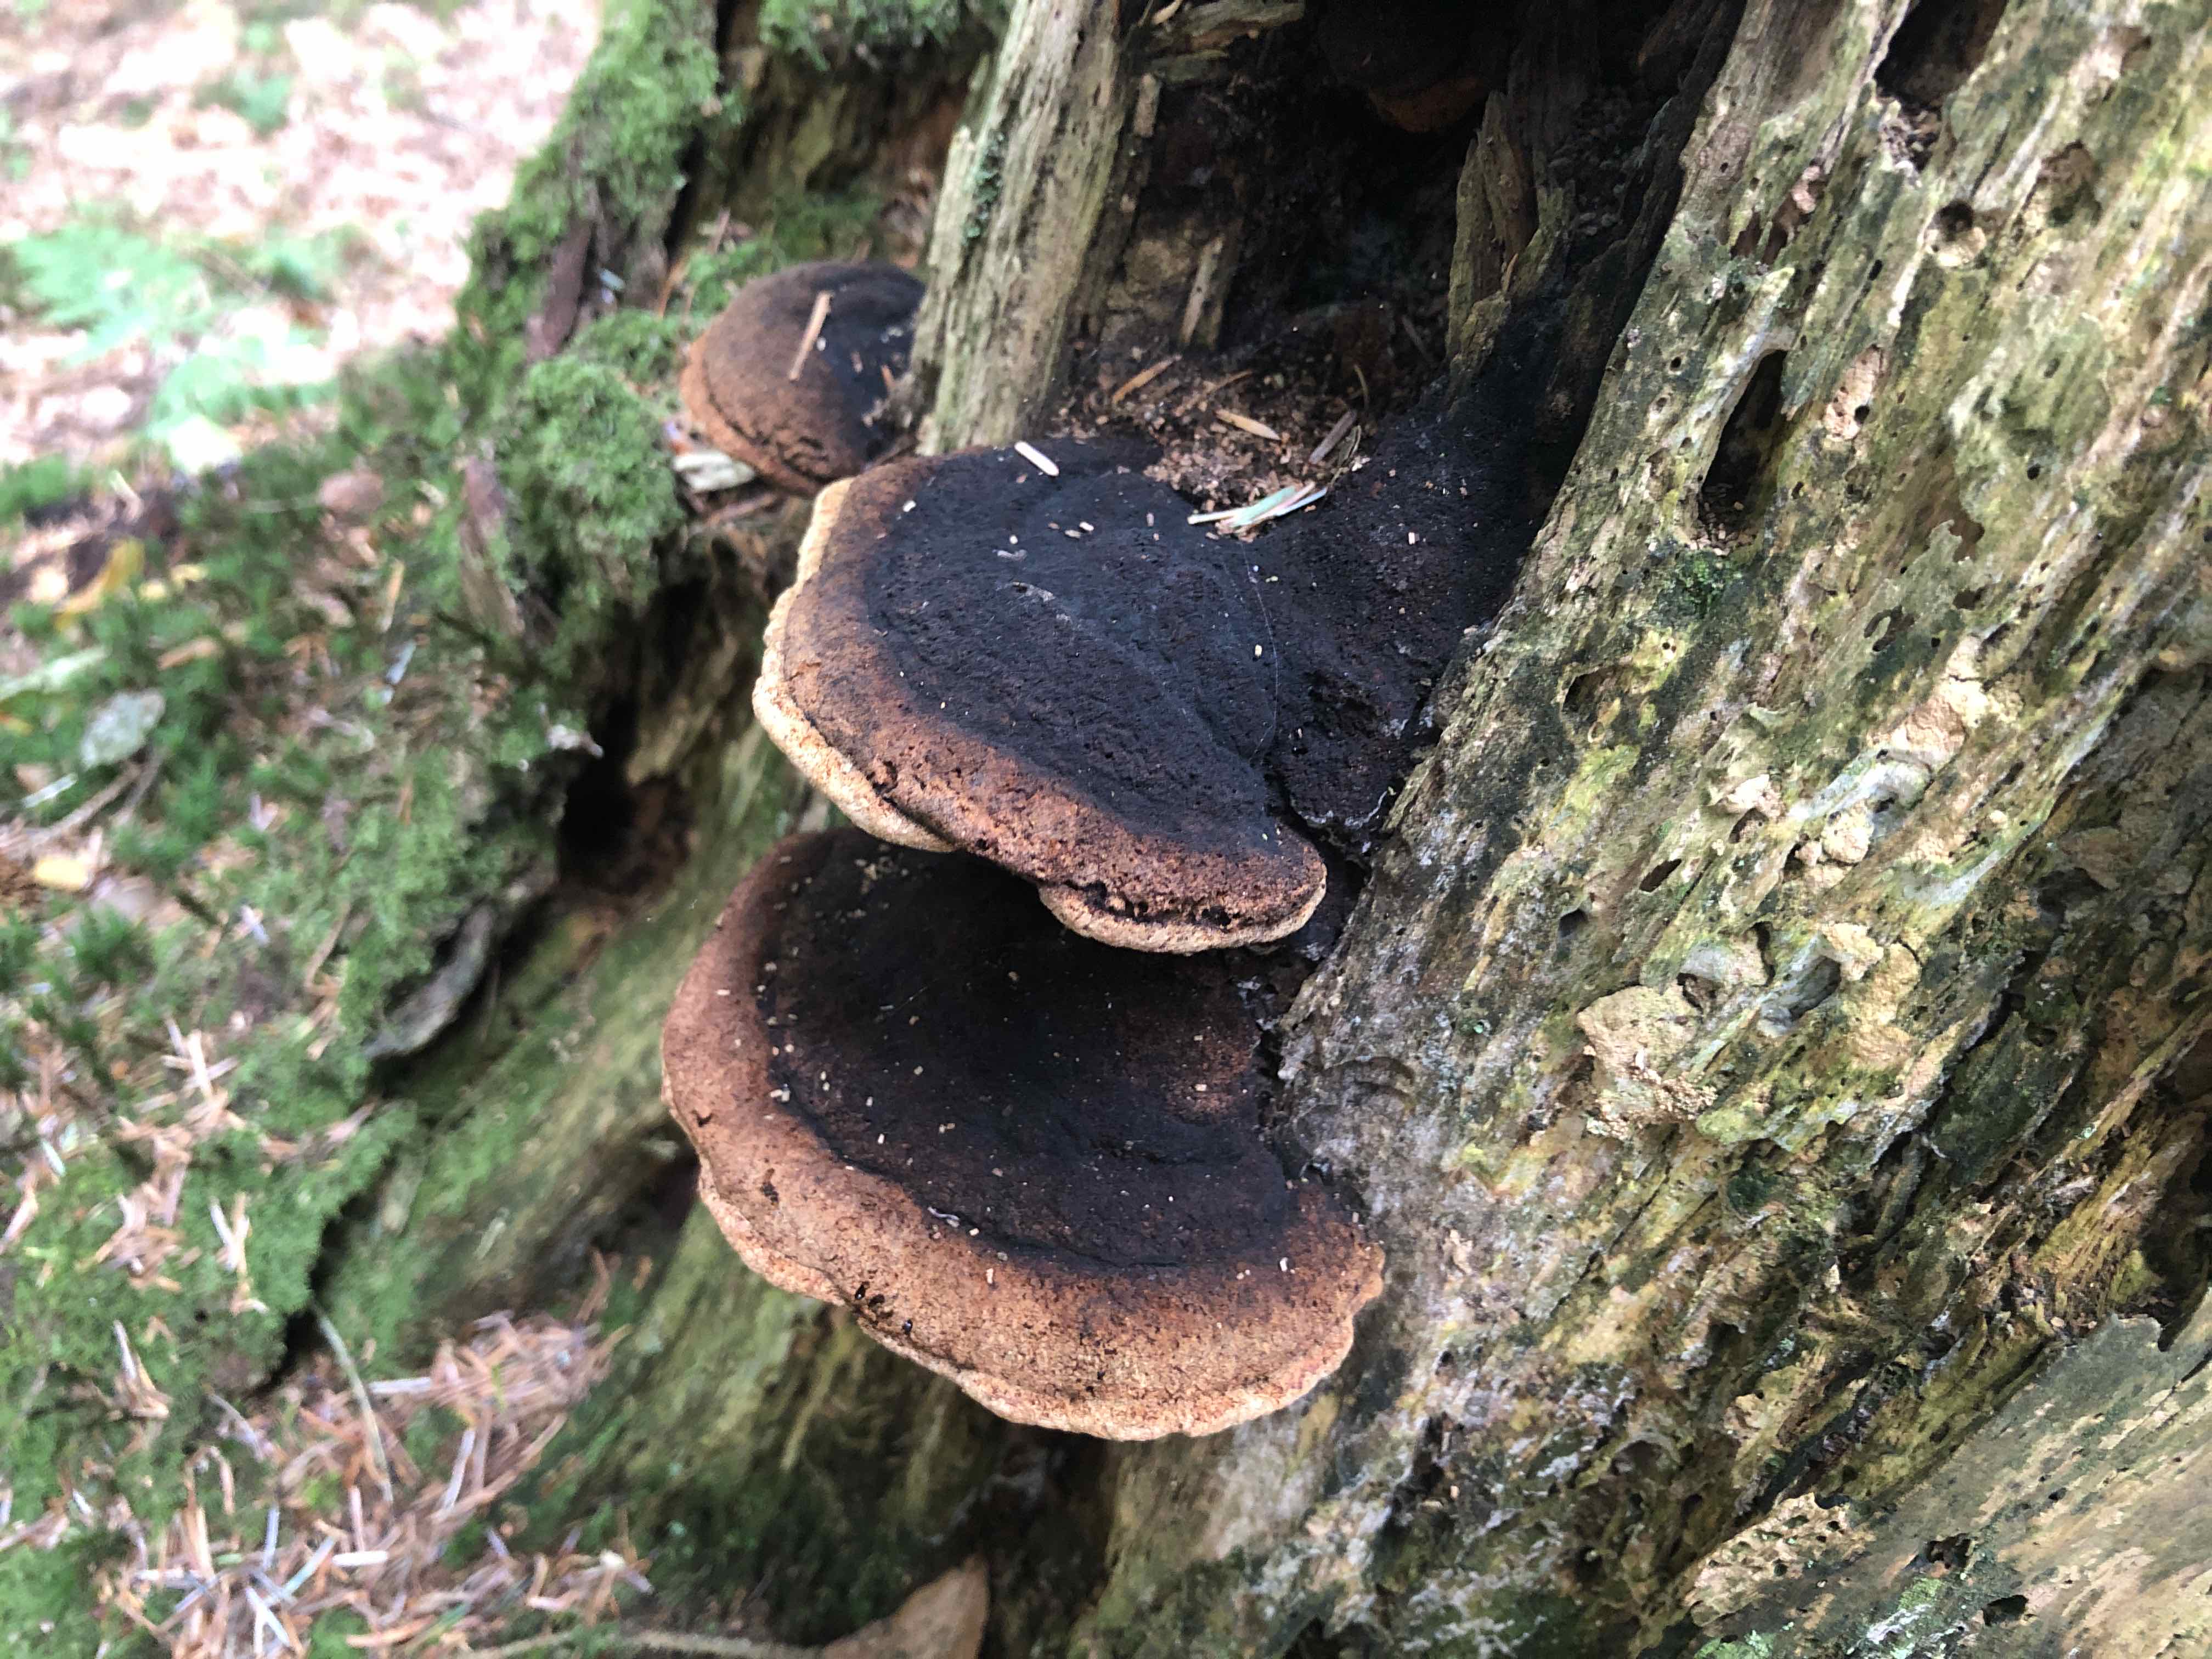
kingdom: Fungi
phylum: Basidiomycota
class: Agaricomycetes
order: Gloeophyllales
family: Gloeophyllaceae
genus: Gloeophyllum
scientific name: Gloeophyllum odoratum
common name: duftende korkhat
